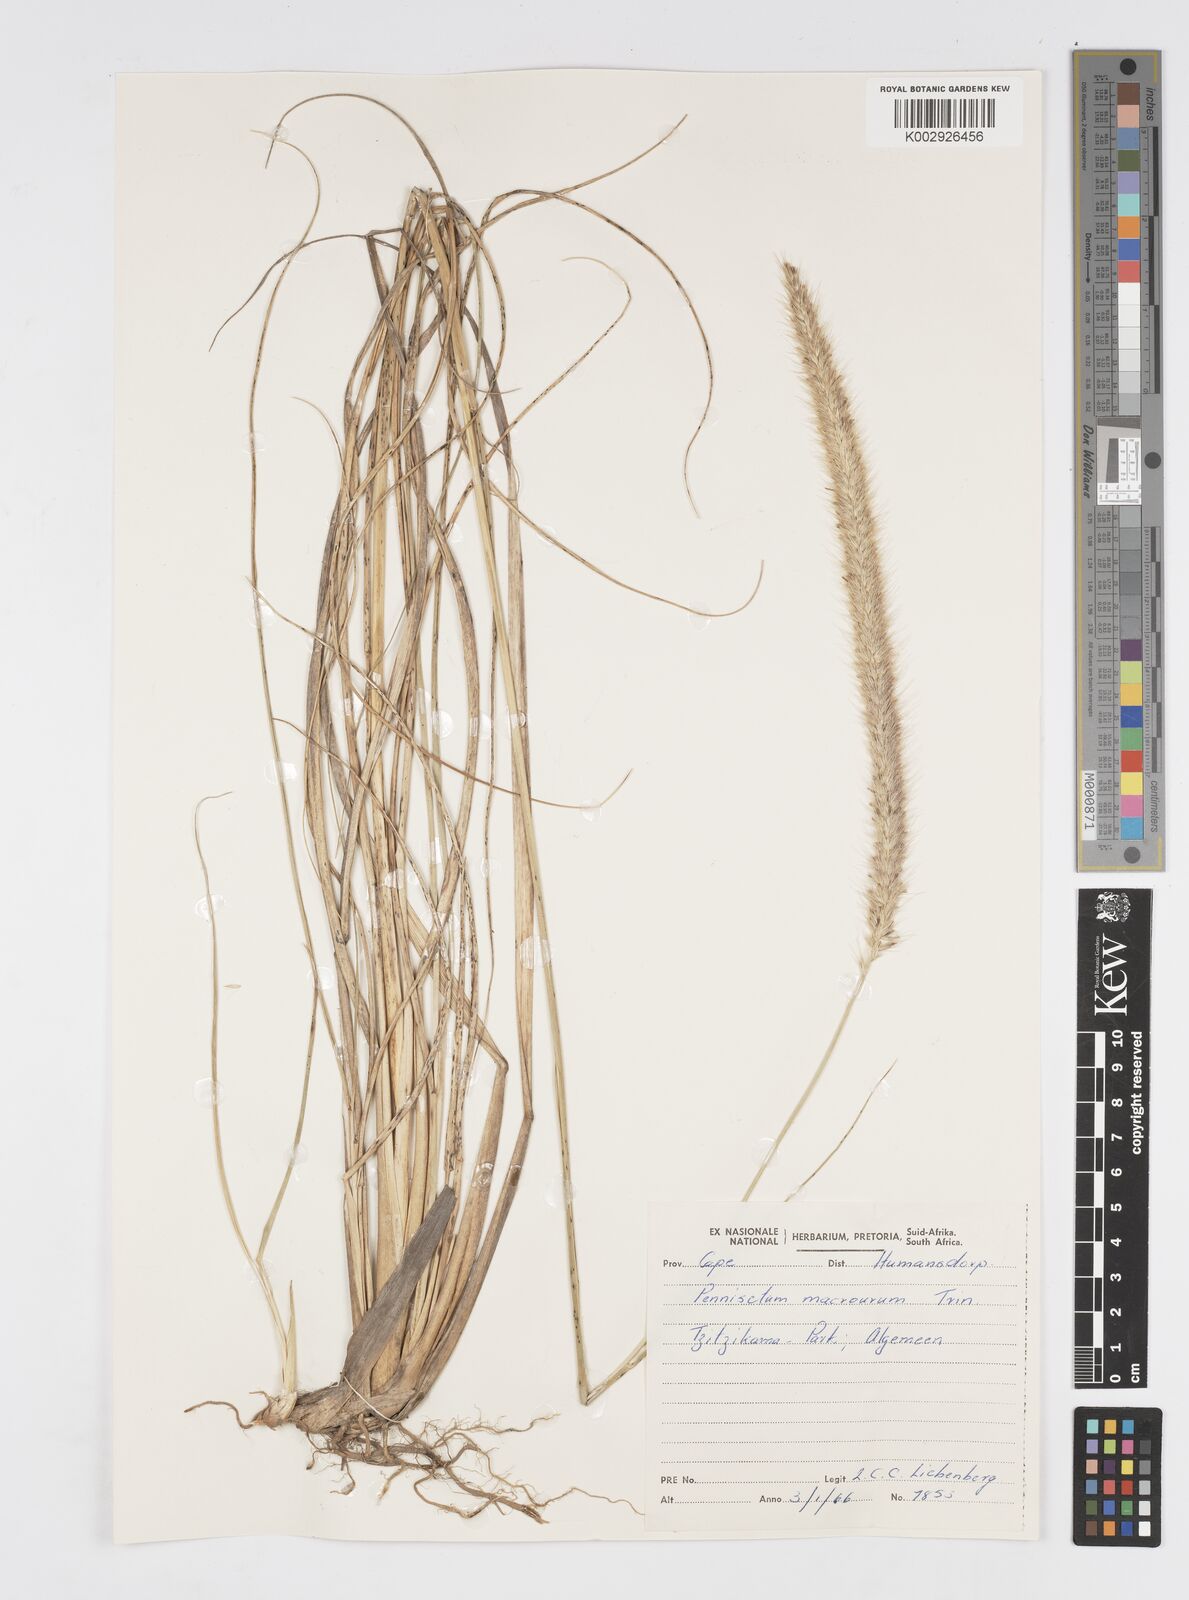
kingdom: Plantae
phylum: Tracheophyta
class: Liliopsida
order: Poales
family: Poaceae
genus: Cenchrus
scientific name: Cenchrus purpureus
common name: Elephant grass
